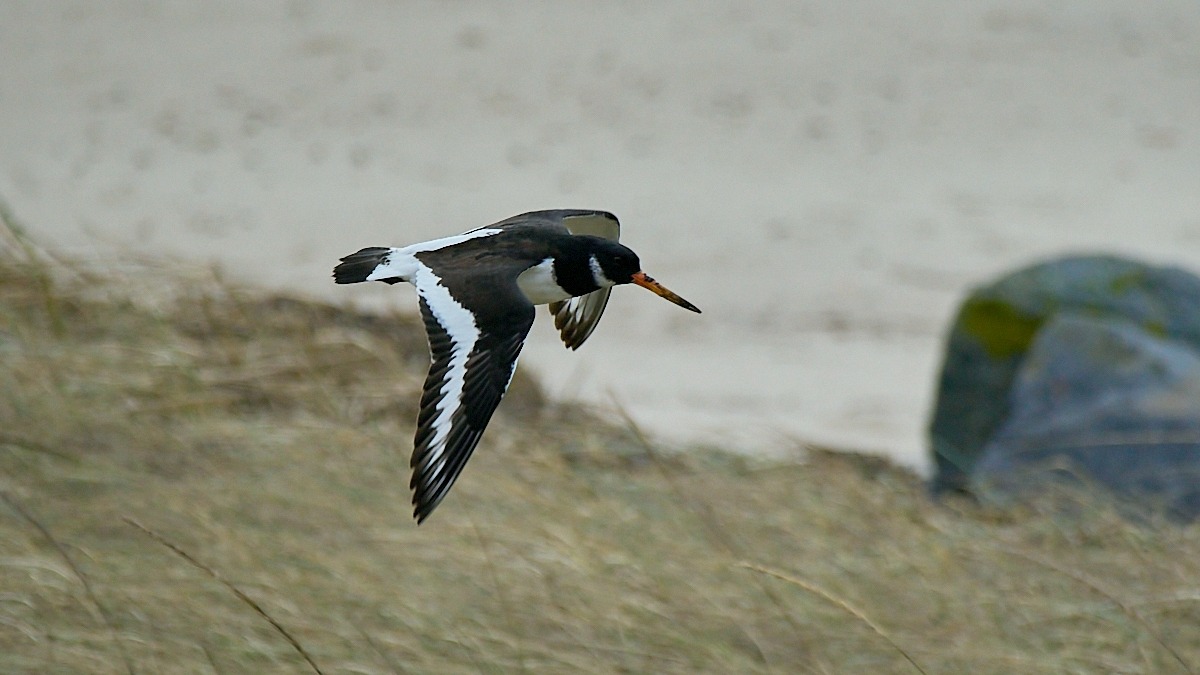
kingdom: Animalia
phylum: Chordata
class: Aves
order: Charadriiformes
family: Haematopodidae
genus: Haematopus
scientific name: Haematopus ostralegus
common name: Strandskade
